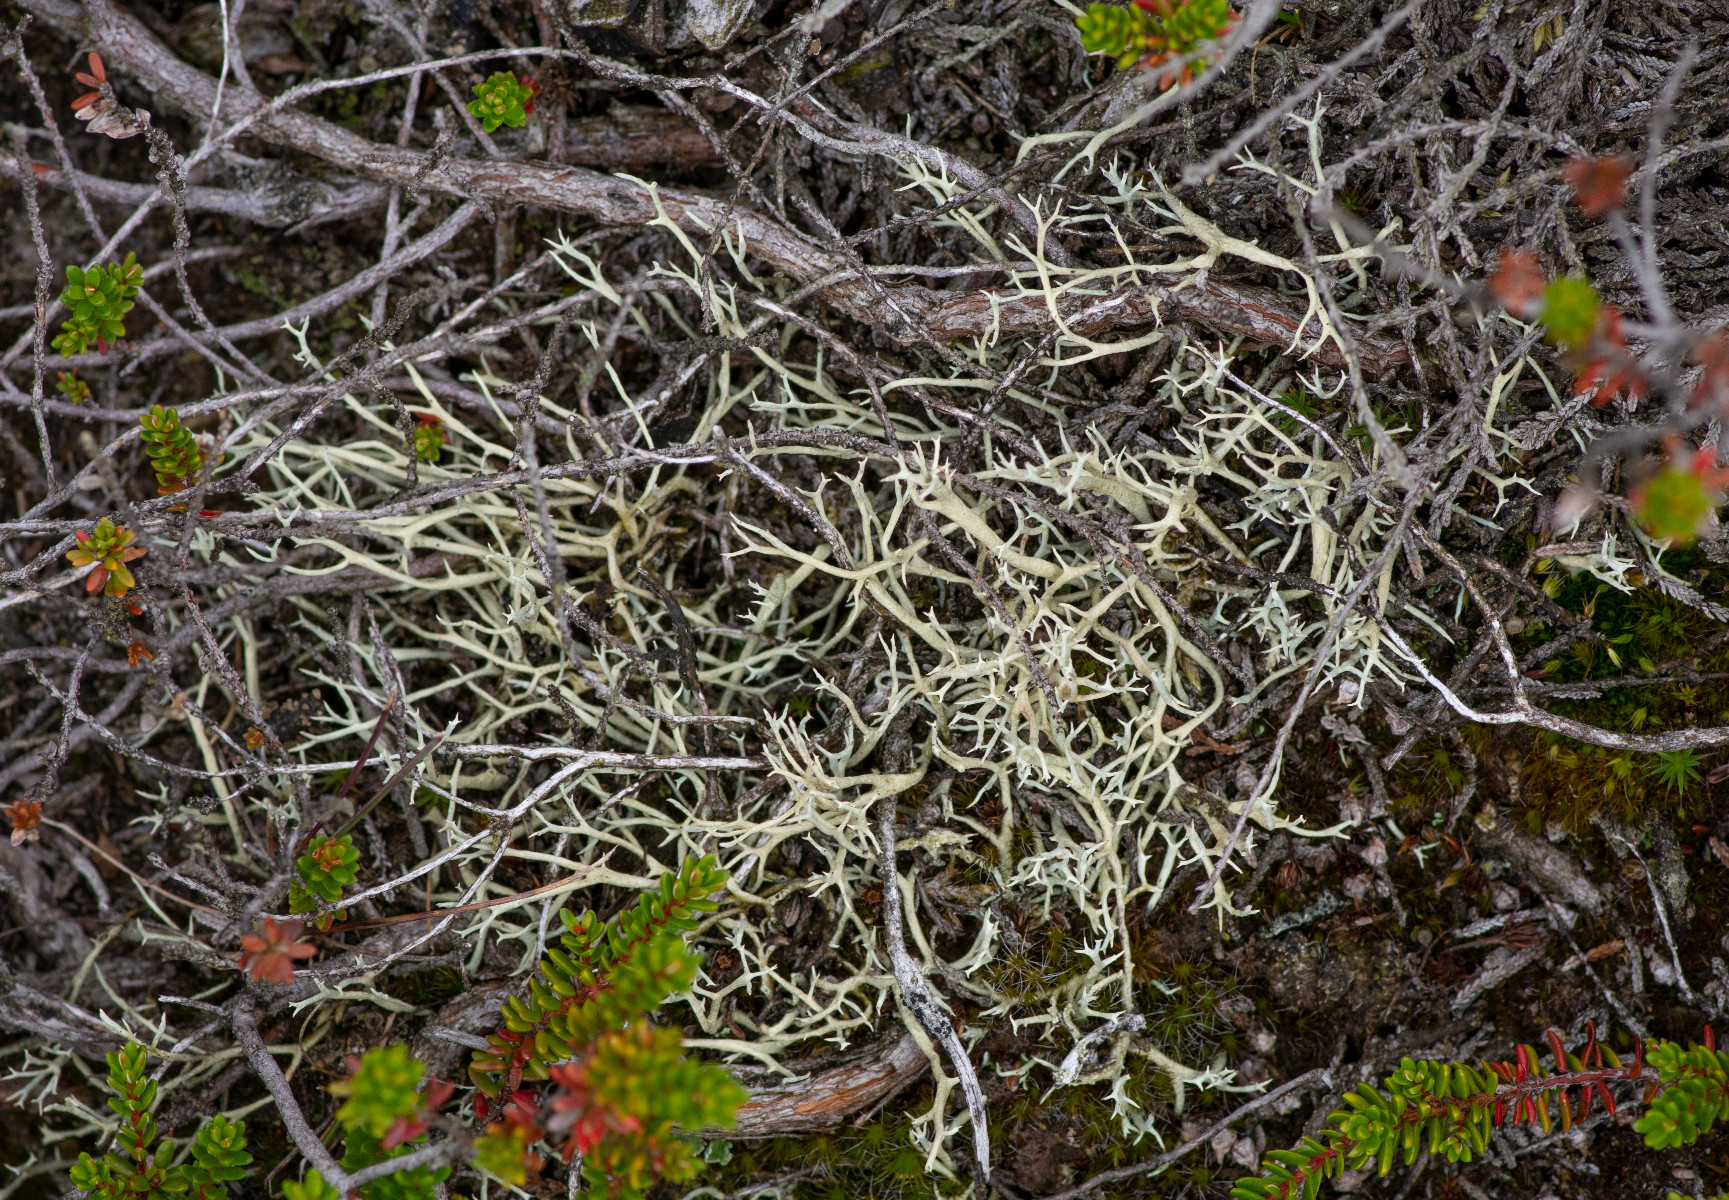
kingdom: Fungi
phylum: Ascomycota
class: Lecanoromycetes
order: Lecanorales
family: Cladoniaceae
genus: Cladonia
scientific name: Cladonia zopfii
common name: klit-bægerlav
